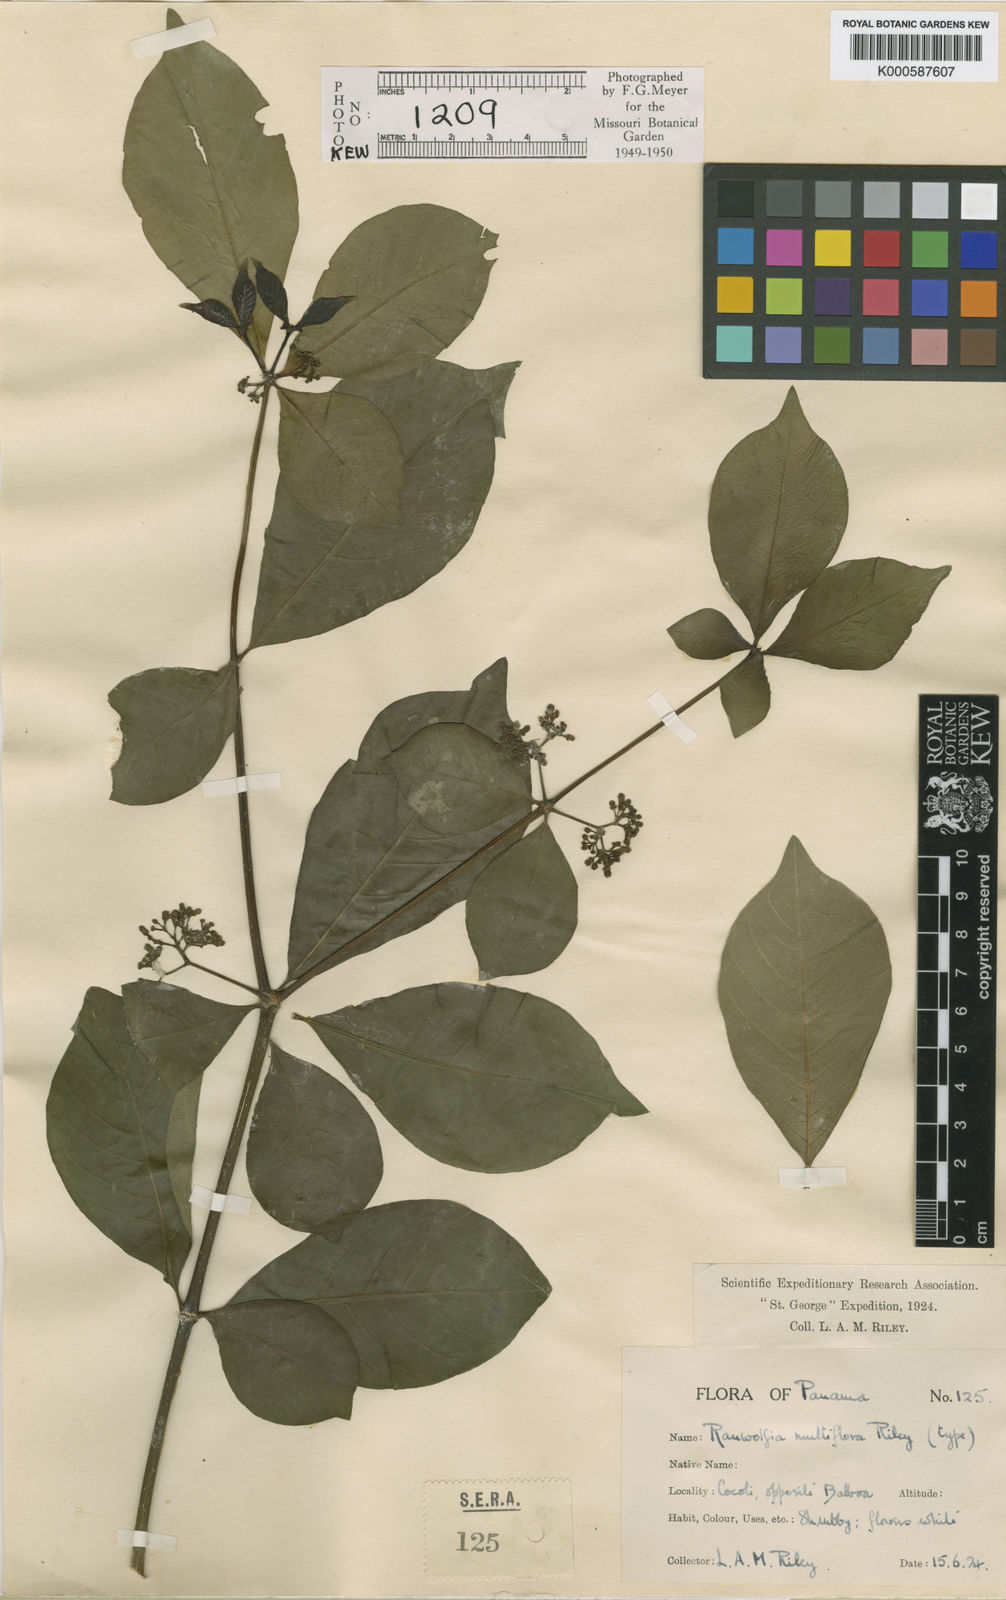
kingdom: Plantae
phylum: Tracheophyta
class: Magnoliopsida
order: Gentianales
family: Apocynaceae
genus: Rauvolfia
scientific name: Rauvolfia littoralis
